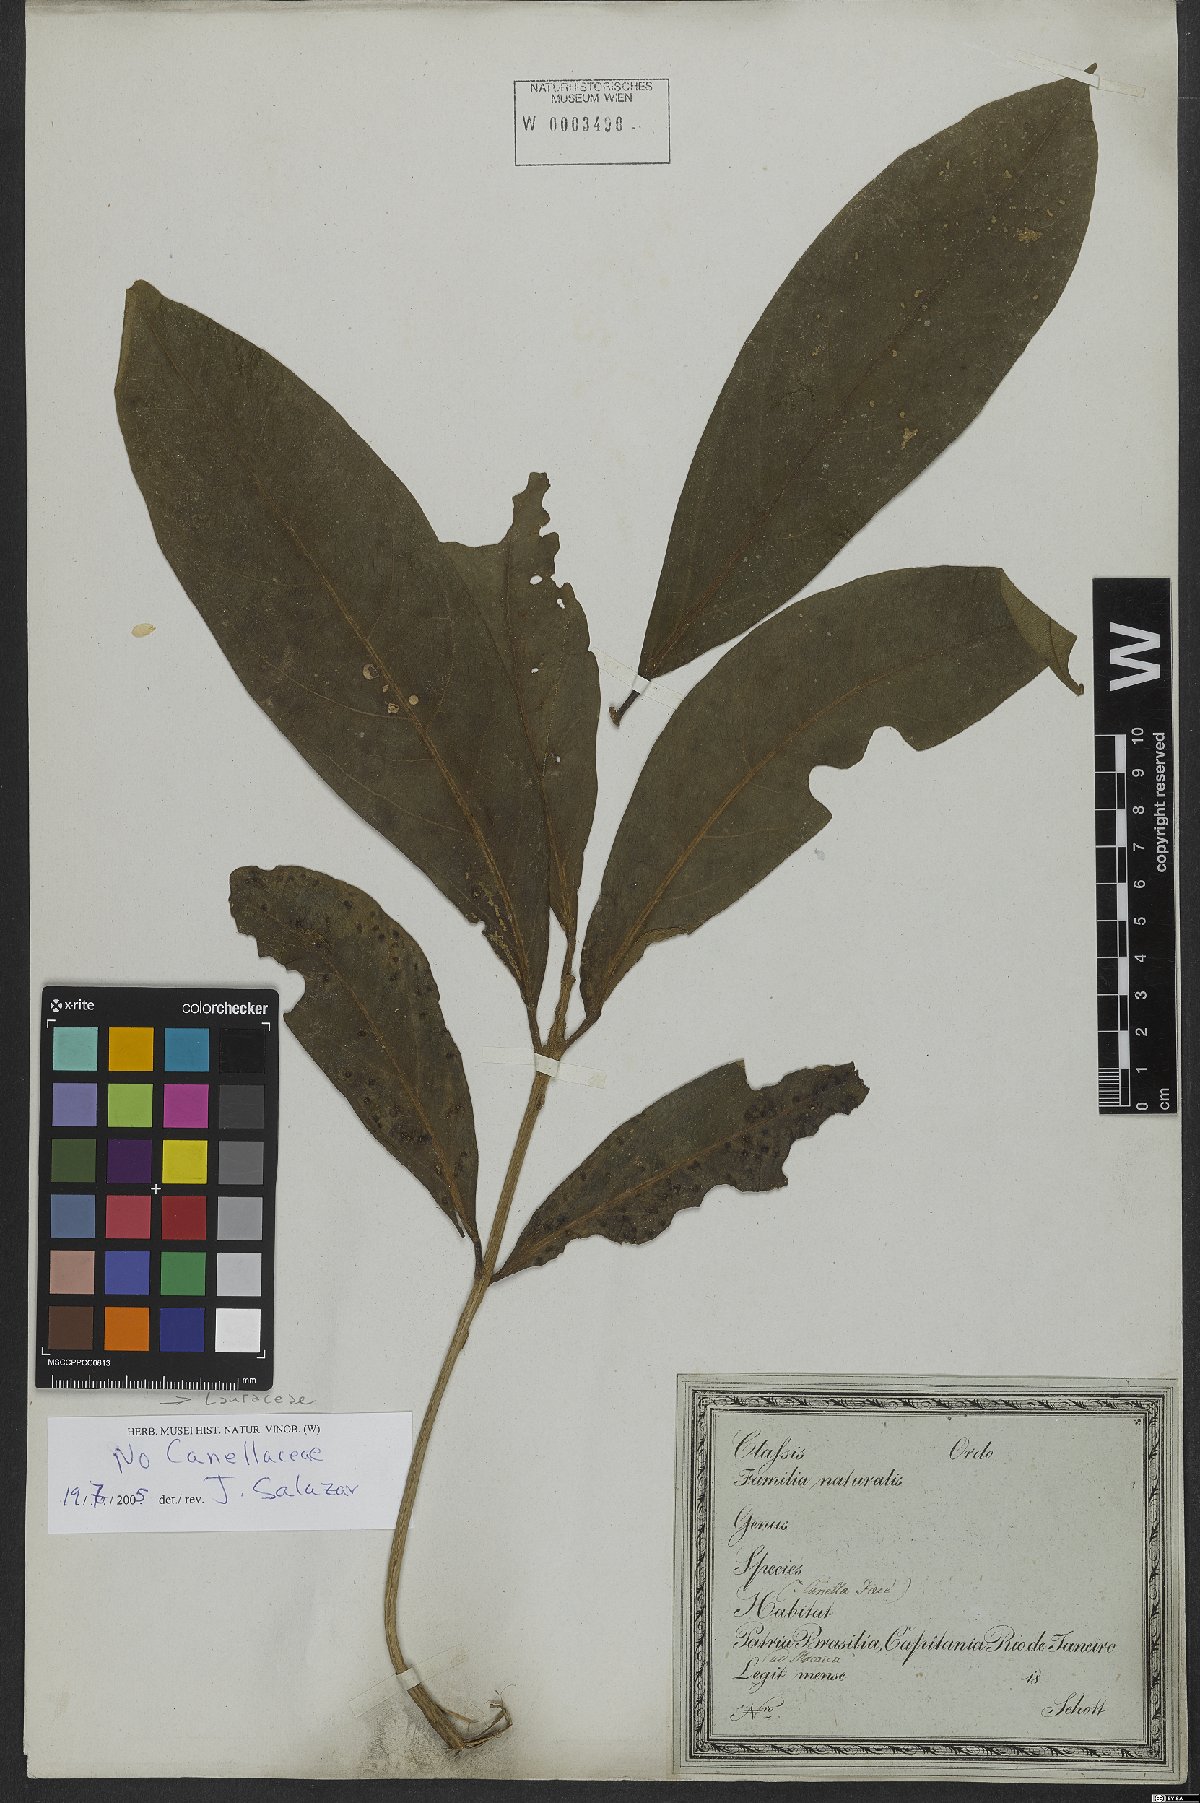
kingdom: Plantae
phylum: Tracheophyta
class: Magnoliopsida
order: Laurales
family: Lauraceae
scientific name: Lauraceae
